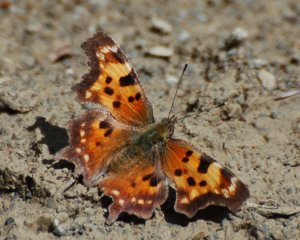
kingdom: Animalia
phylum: Arthropoda
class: Insecta
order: Lepidoptera
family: Nymphalidae
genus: Polygonia
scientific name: Polygonia faunus
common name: Green Comma
